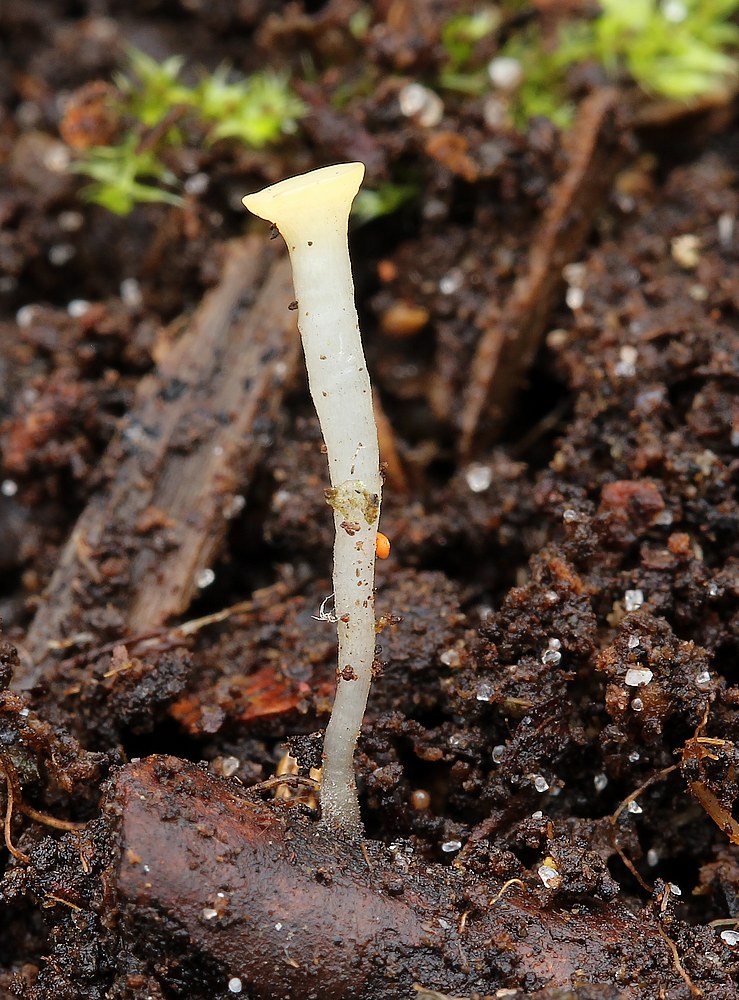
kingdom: Fungi
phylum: Ascomycota
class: Leotiomycetes
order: Helotiales
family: Helotiaceae
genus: Hymenoscyphus
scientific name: Hymenoscyphus
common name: stilkskive
